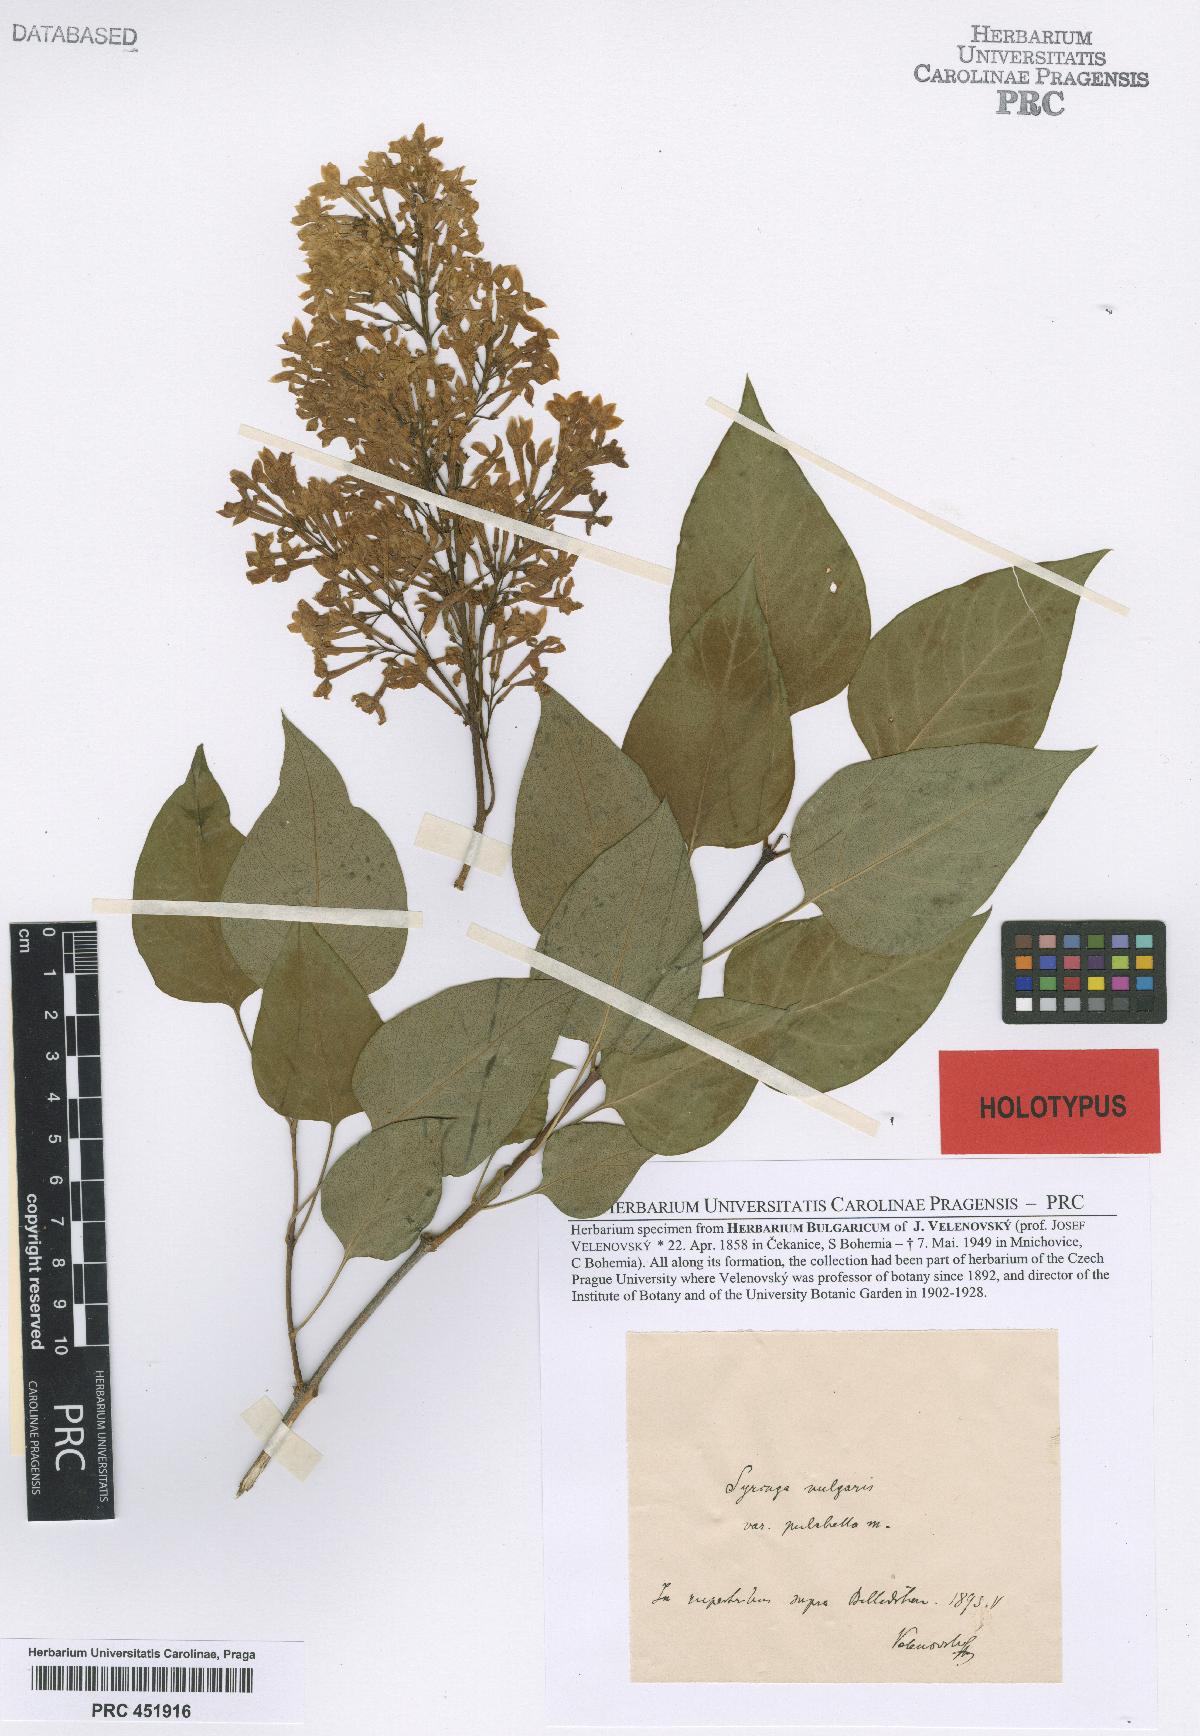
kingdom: Plantae
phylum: Tracheophyta
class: Magnoliopsida
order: Lamiales
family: Oleaceae
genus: Syringa
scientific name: Syringa vulgaris
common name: Common lilac
